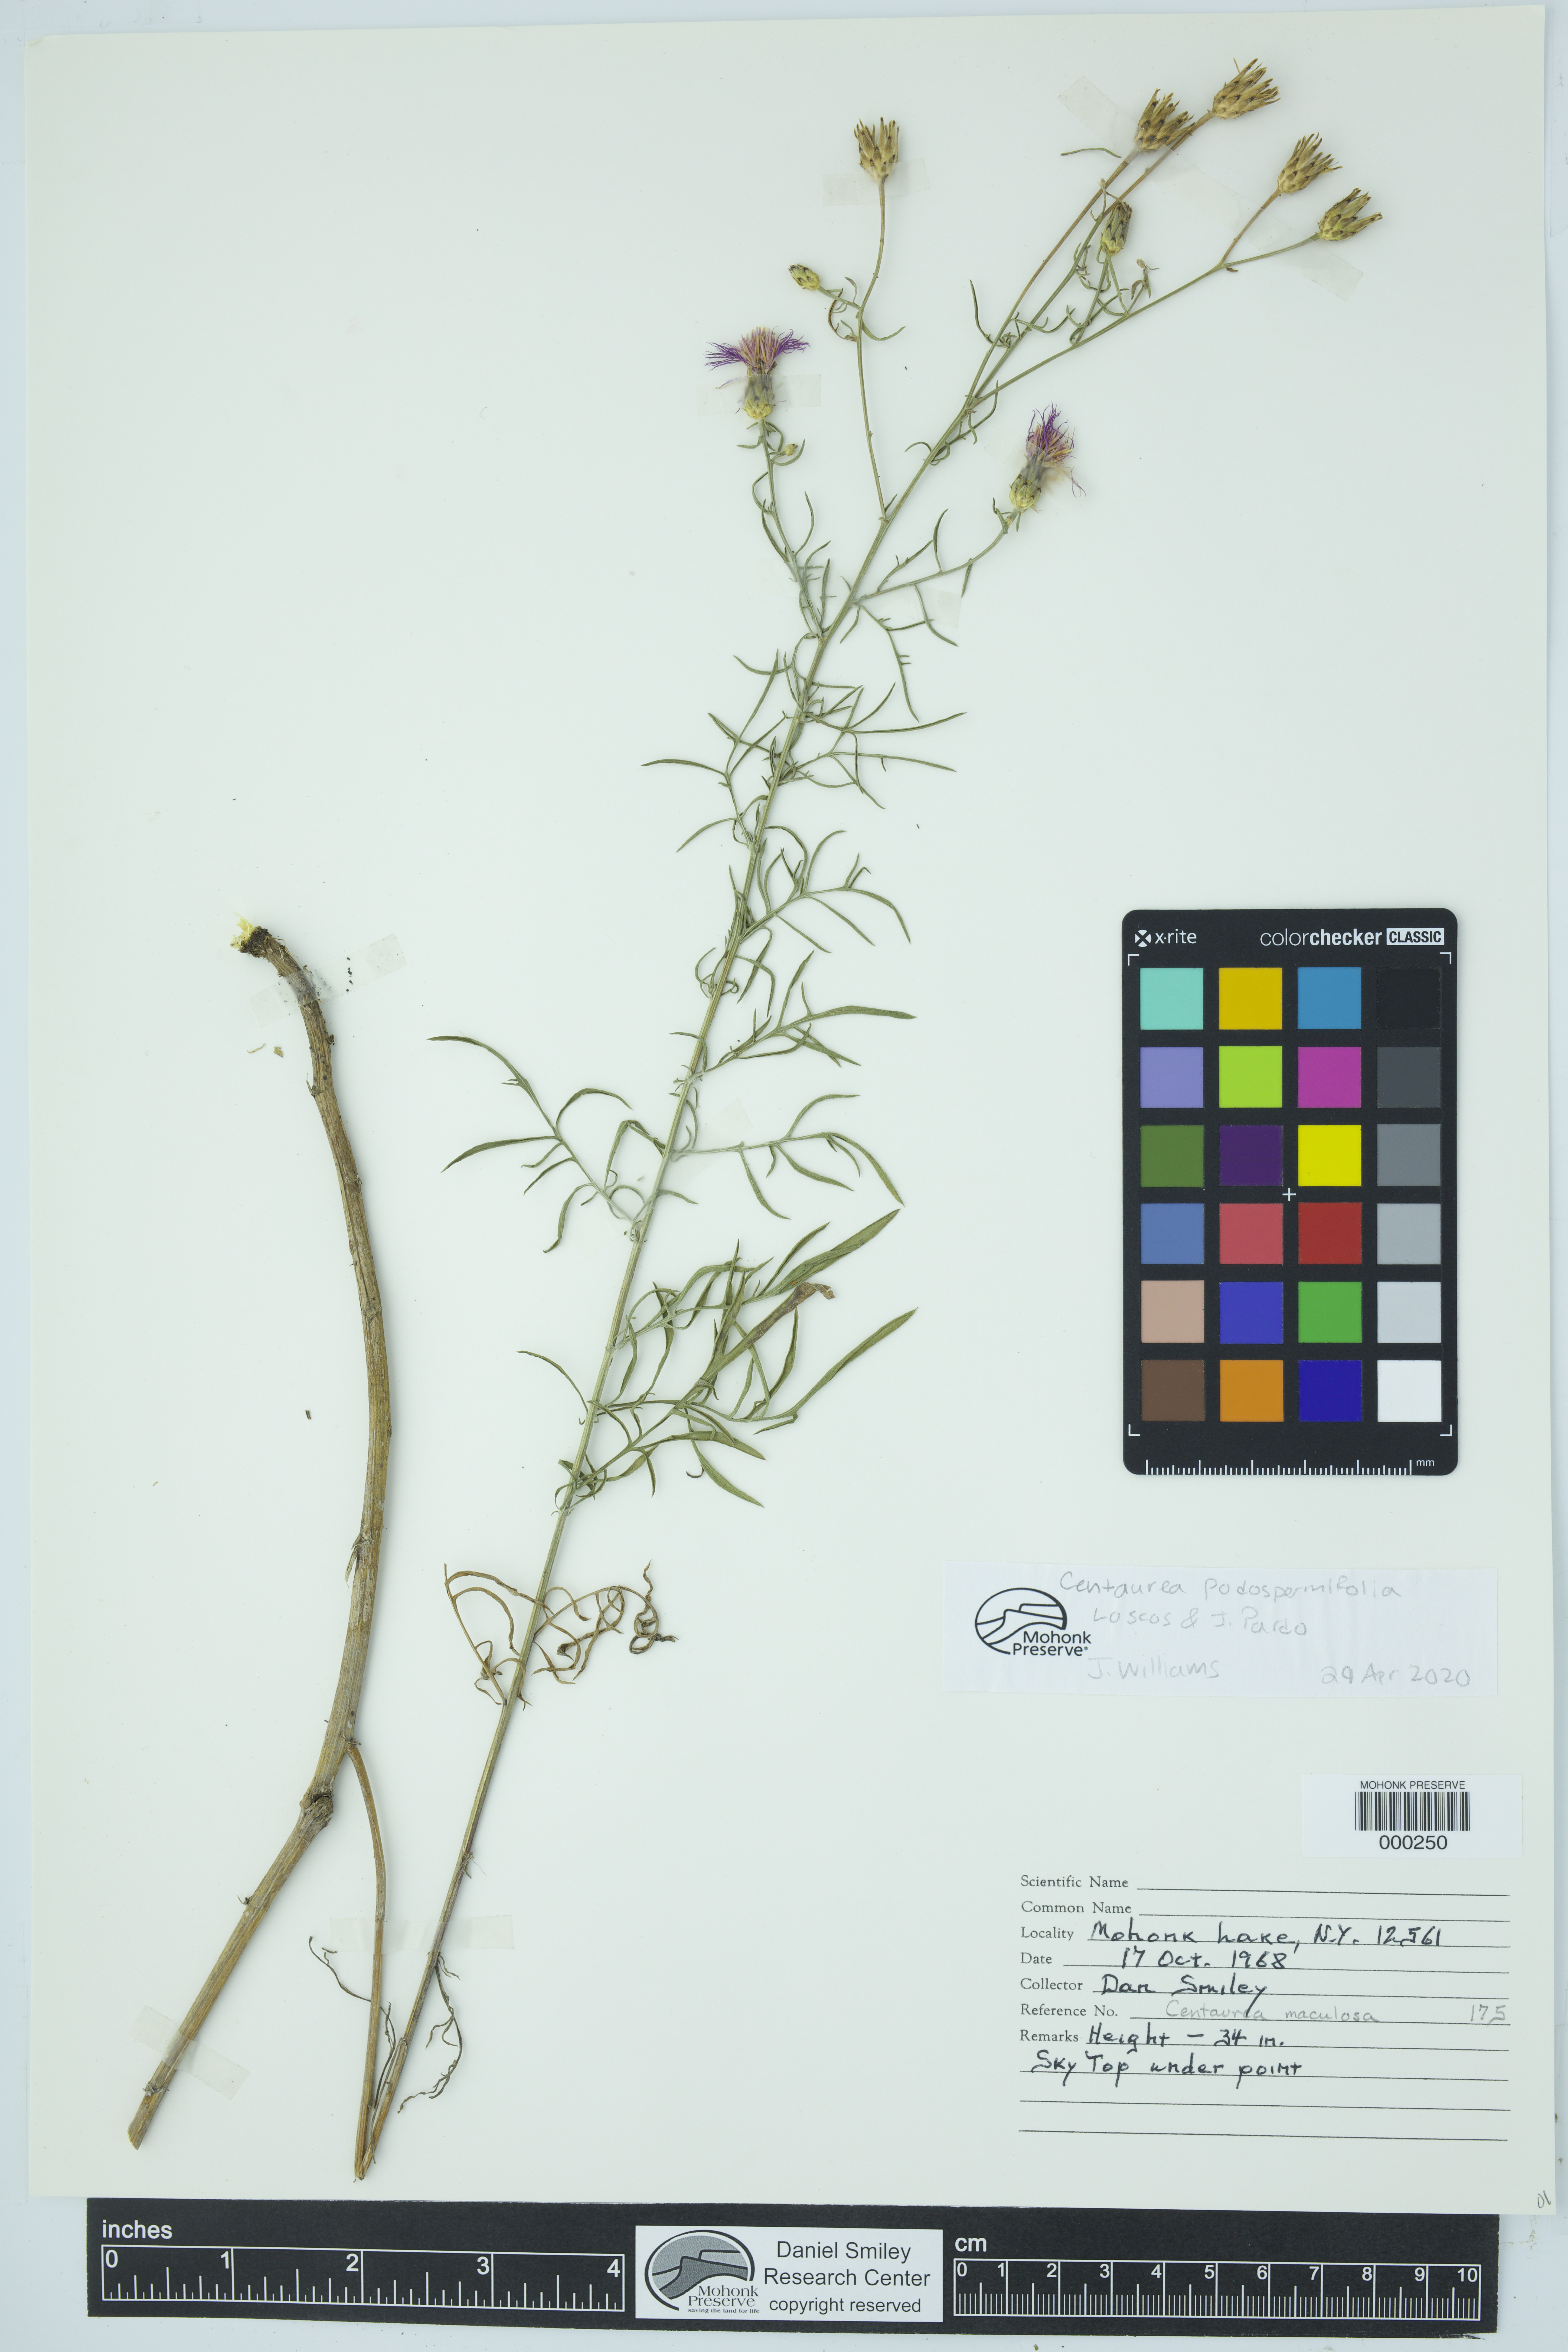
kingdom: Plantae
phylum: Tracheophyta
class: Magnoliopsida
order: Asterales
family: Asteraceae
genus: Centaurea
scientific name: Centaurea
